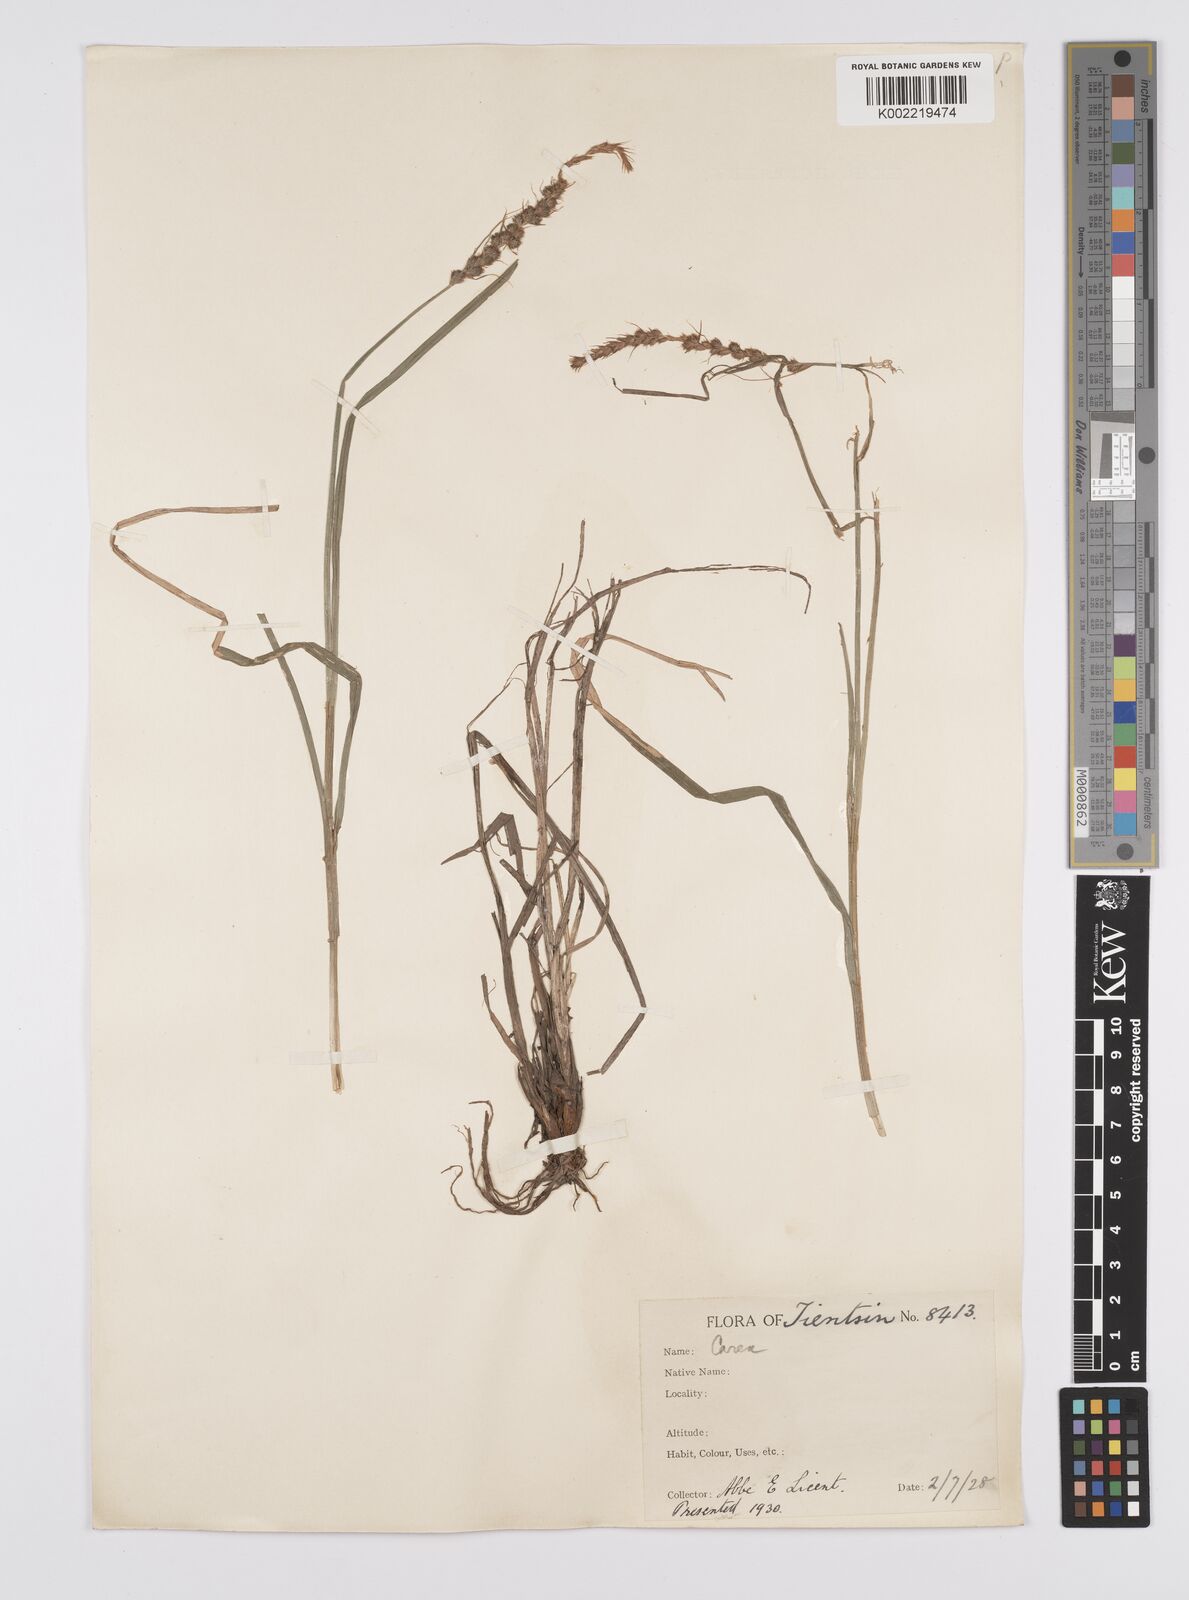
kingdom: Plantae
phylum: Tracheophyta
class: Liliopsida
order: Poales
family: Cyperaceae
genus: Carex
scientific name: Carex neurocarpa
